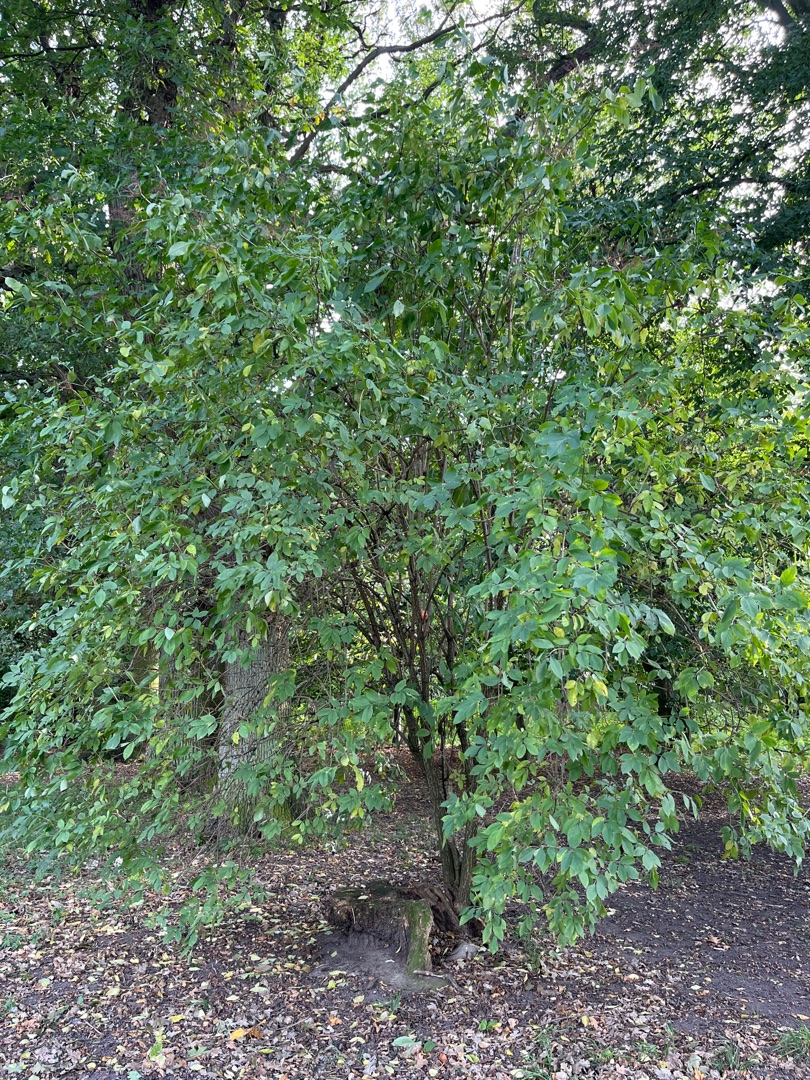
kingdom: Plantae
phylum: Tracheophyta
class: Magnoliopsida
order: Dipsacales
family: Viburnaceae
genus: Sambucus
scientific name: Sambucus nigra
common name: Almindelig hyld
